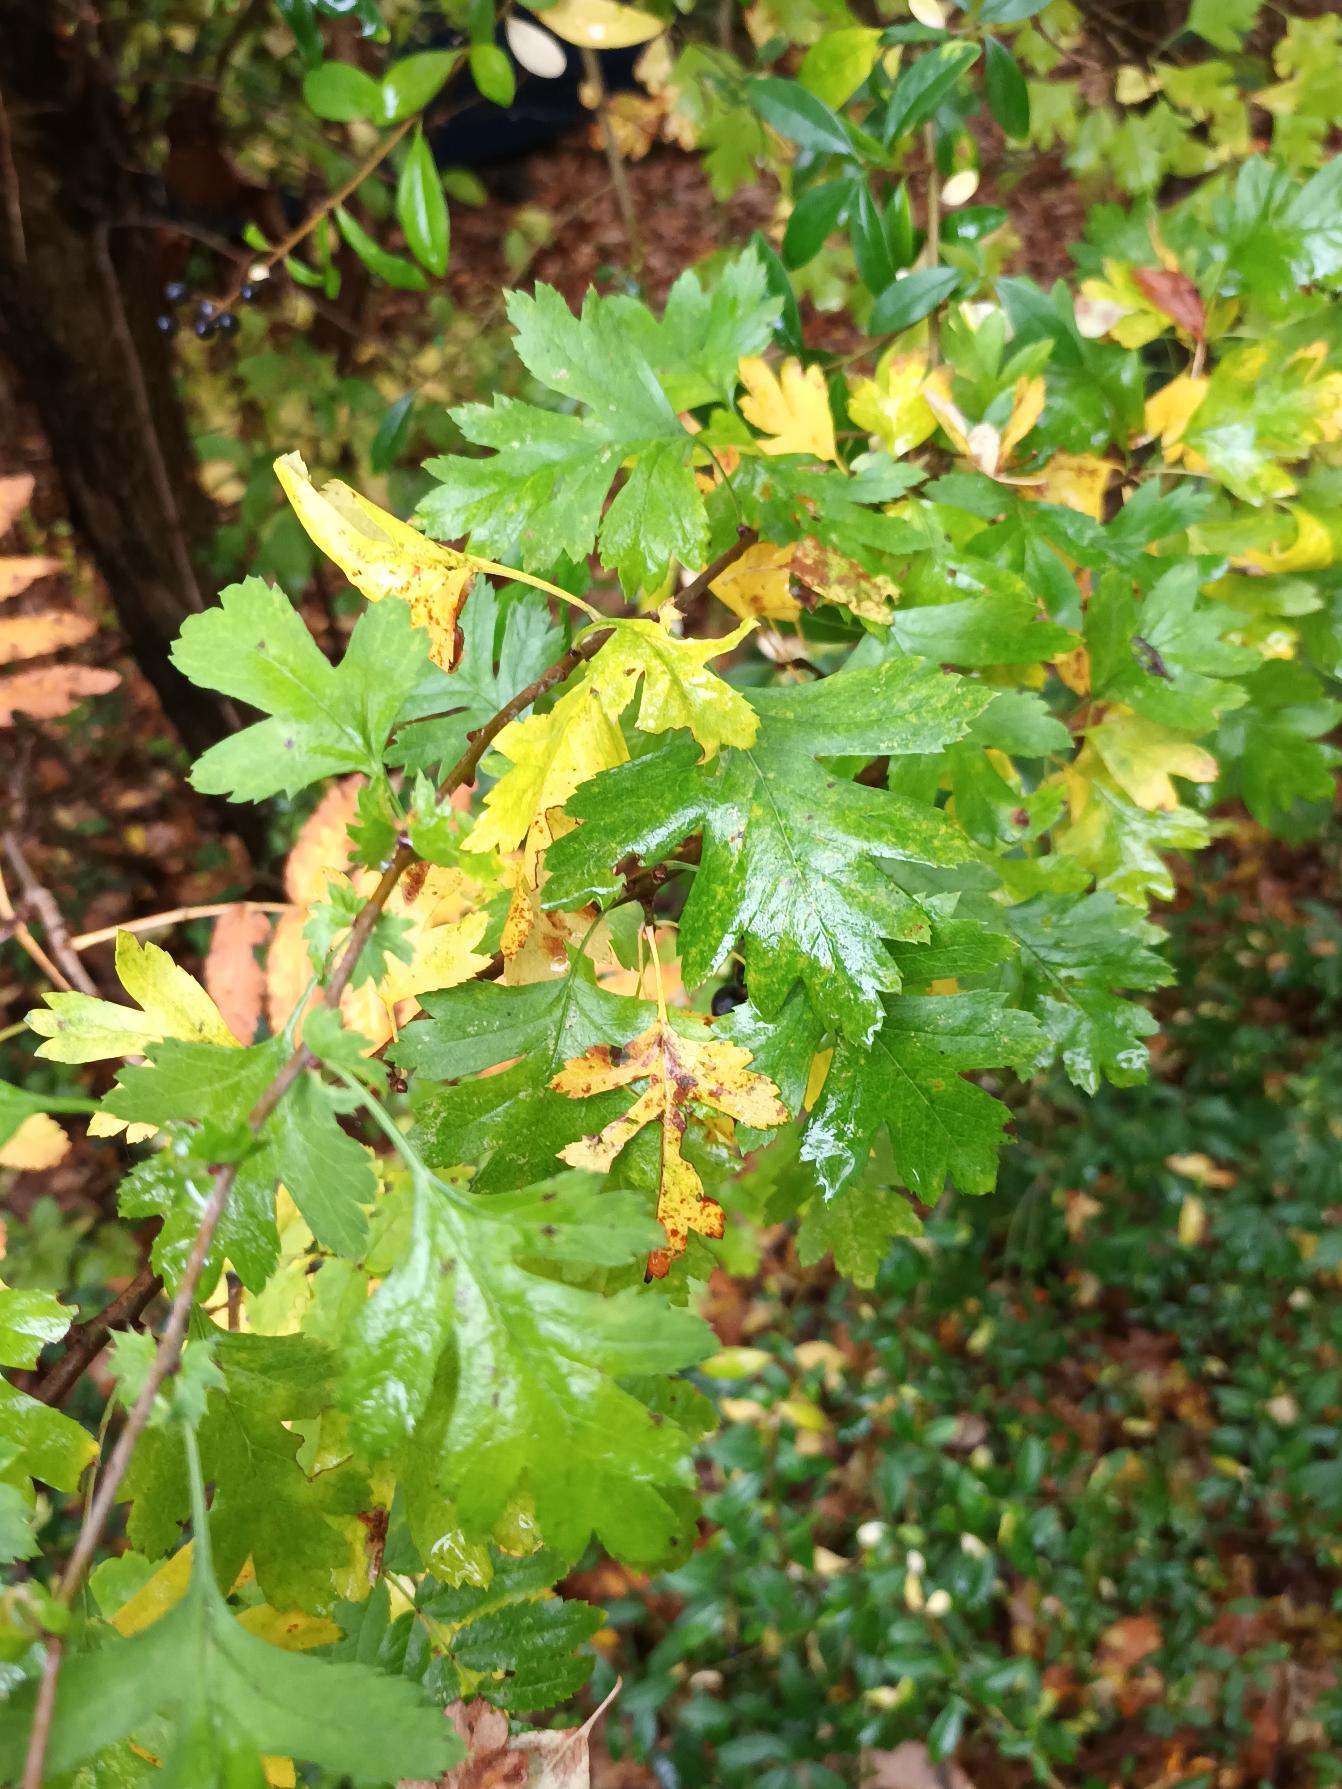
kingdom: Plantae
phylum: Tracheophyta
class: Magnoliopsida
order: Rosales
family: Rosaceae
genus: Crataegus
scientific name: Crataegus monogyna
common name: Engriflet hvidtjørn
